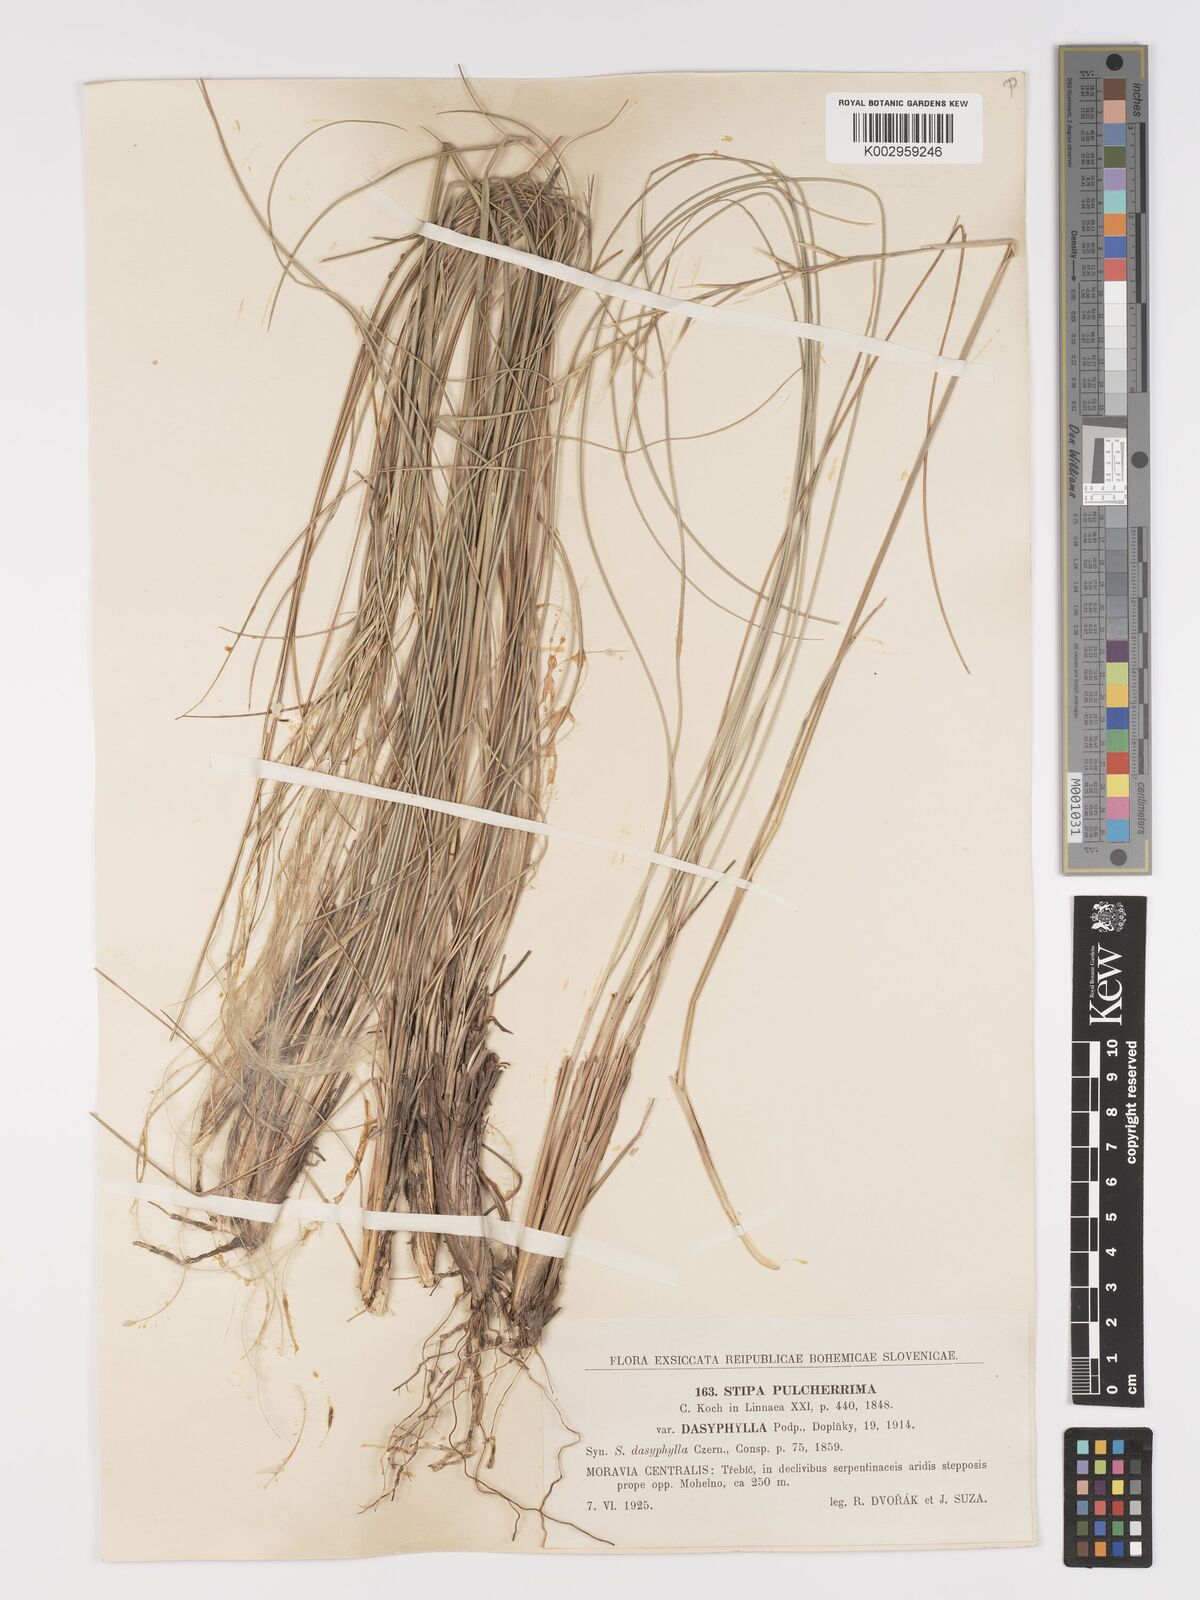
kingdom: Plantae
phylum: Tracheophyta
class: Liliopsida
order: Poales
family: Poaceae
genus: Stipa
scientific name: Stipa pulcherrima
